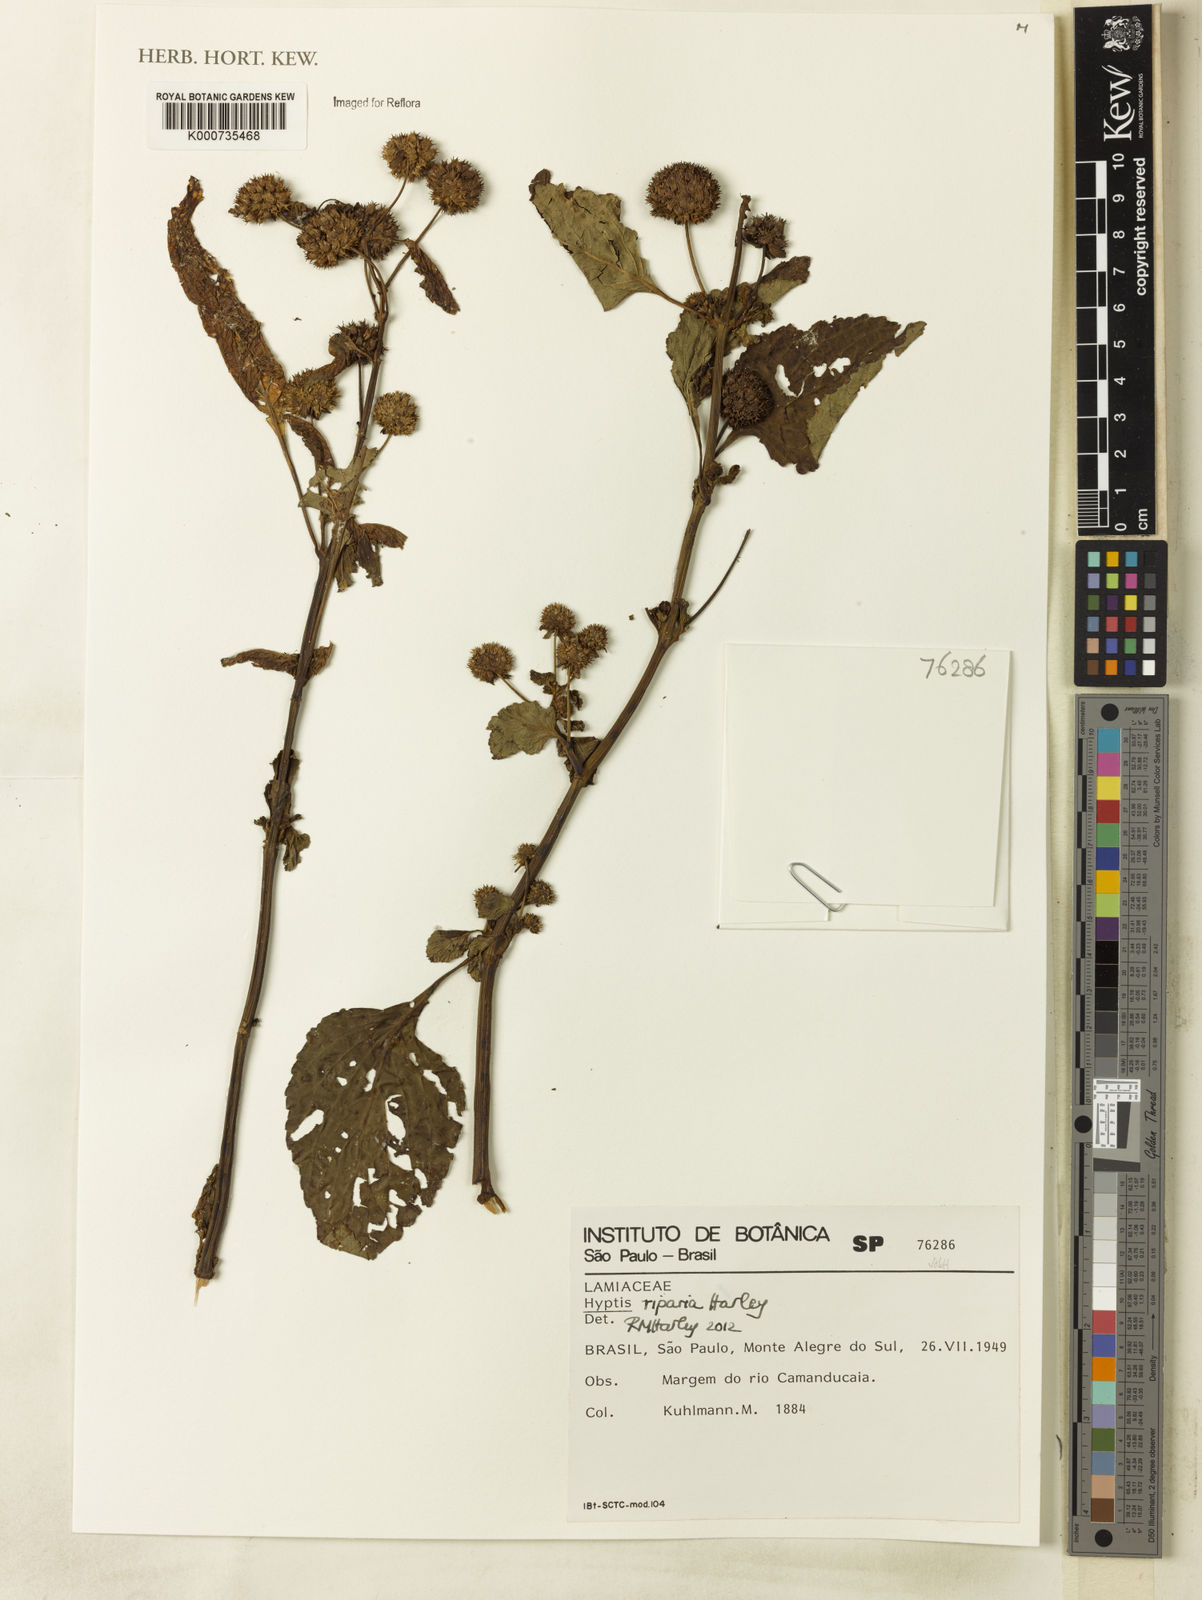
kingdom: Plantae
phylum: Tracheophyta
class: Magnoliopsida
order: Lamiales
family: Lamiaceae
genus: Hyptis
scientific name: Hyptis riparia
